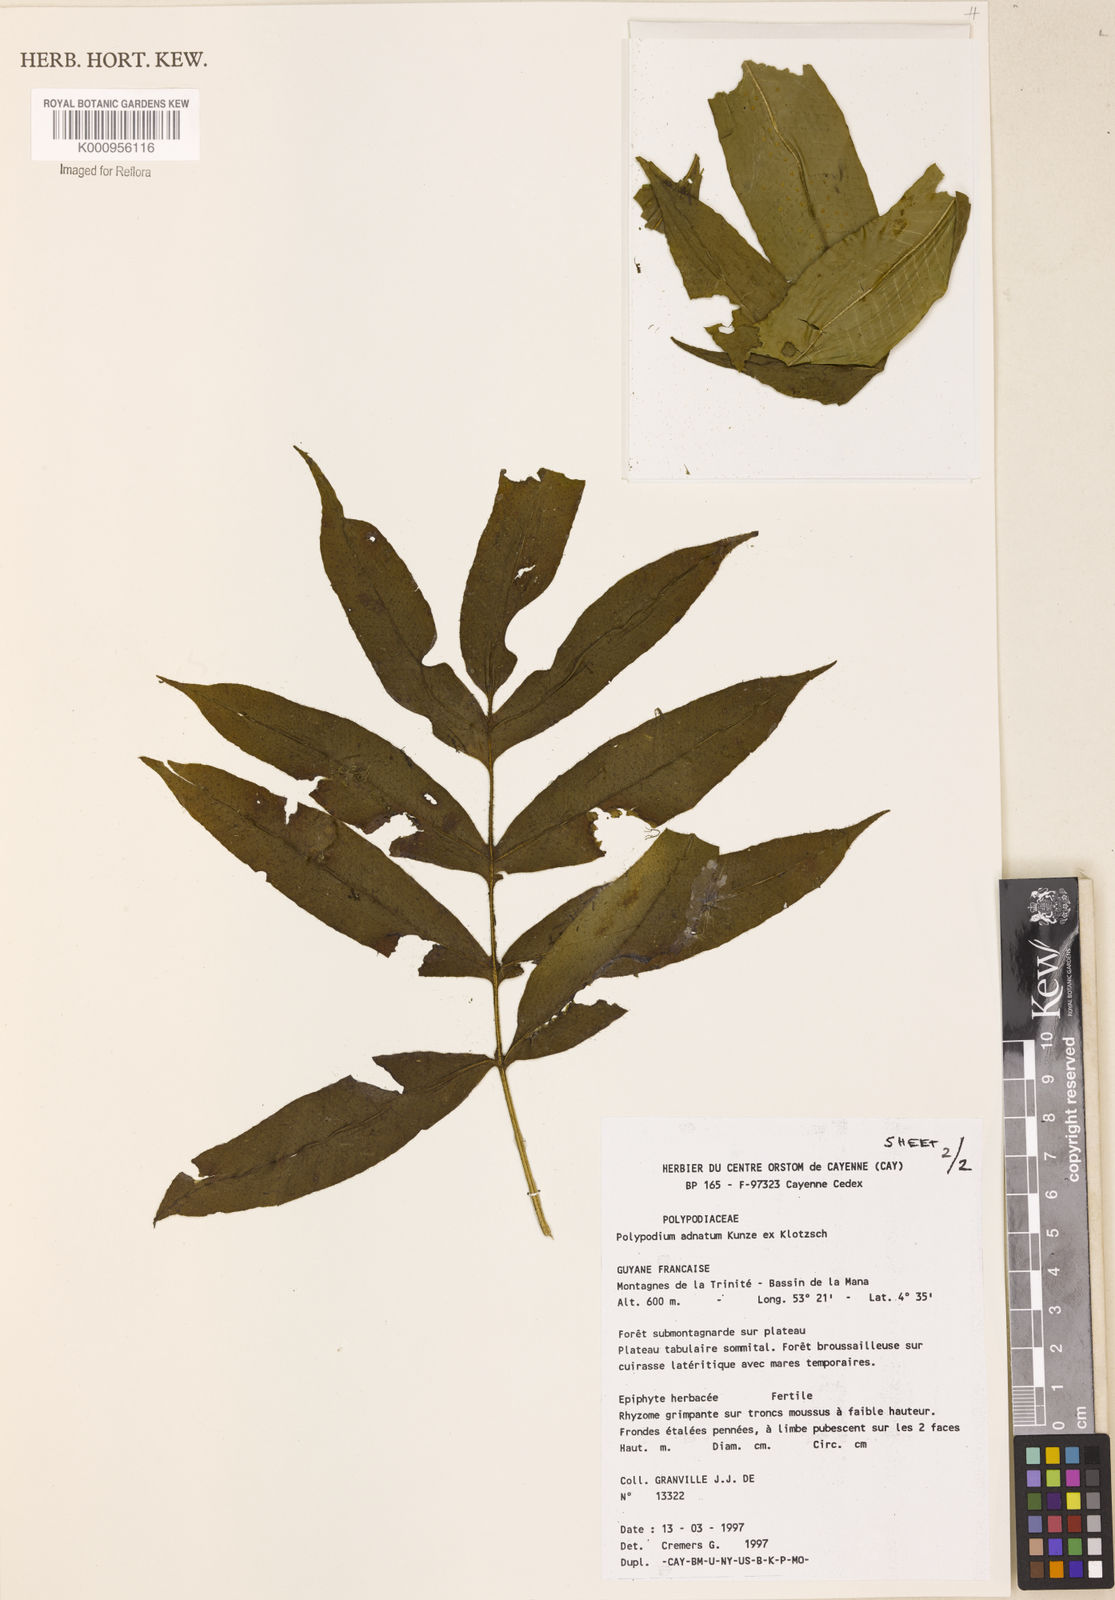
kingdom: Plantae
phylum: Tracheophyta
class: Polypodiopsida
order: Polypodiales
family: Polypodiaceae
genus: Polypodium
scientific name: Polypodium
